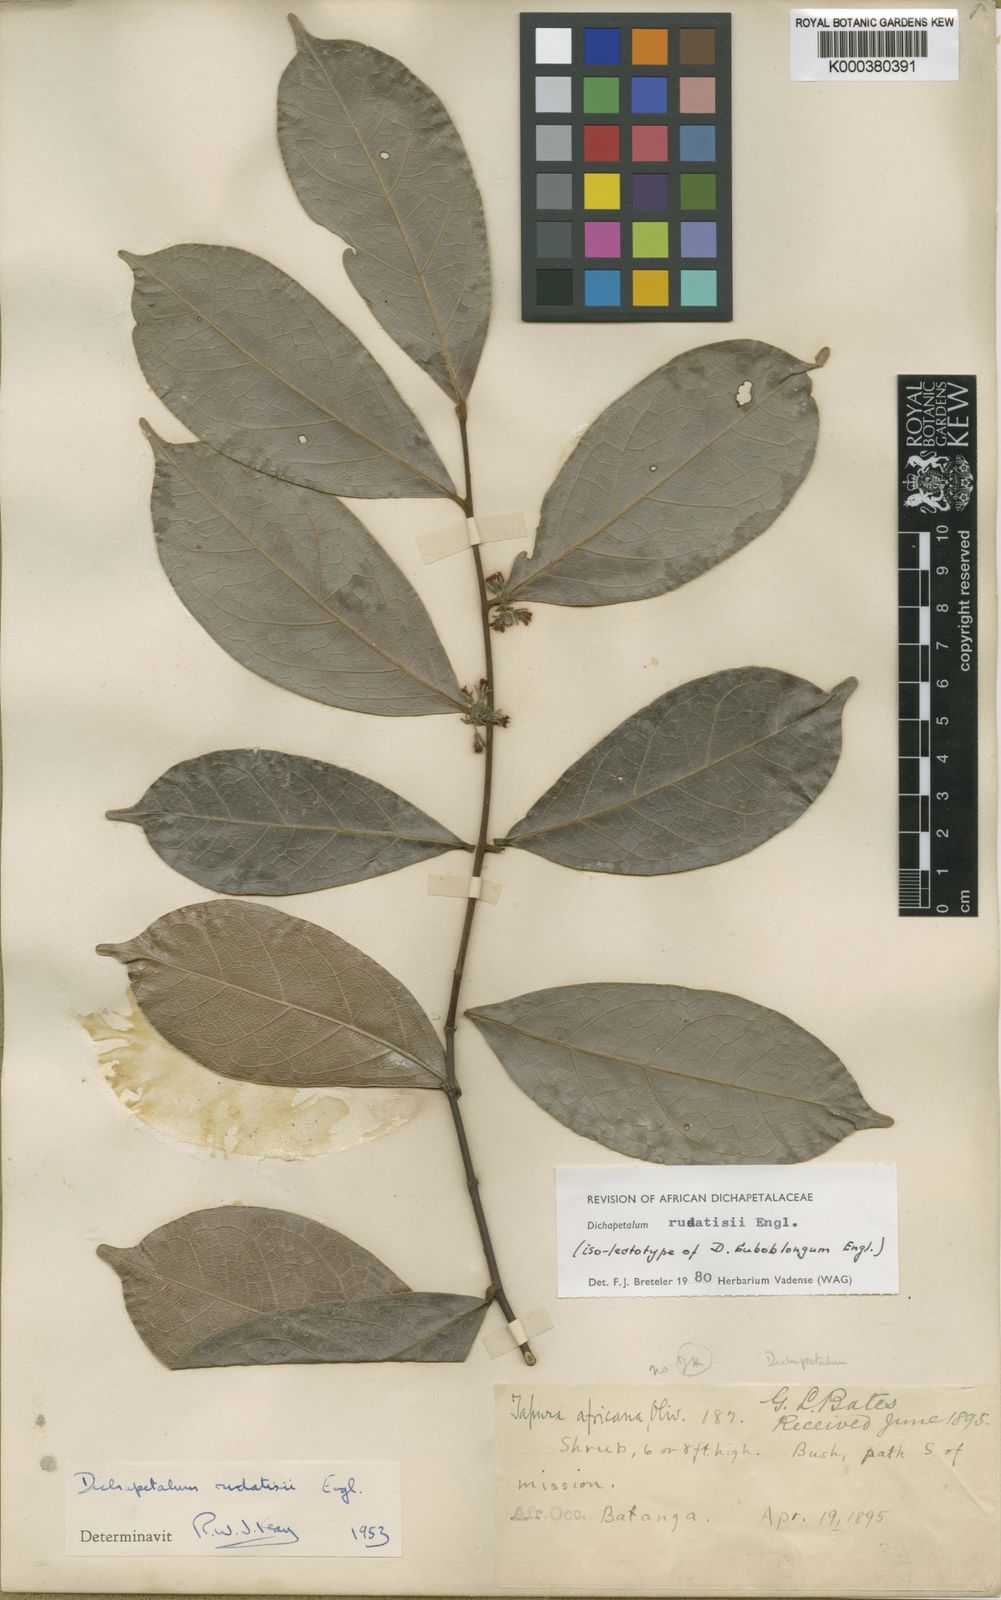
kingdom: Plantae
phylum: Tracheophyta
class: Magnoliopsida
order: Malpighiales
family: Dichapetalaceae
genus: Dichapetalum
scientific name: Dichapetalum rudatisii
